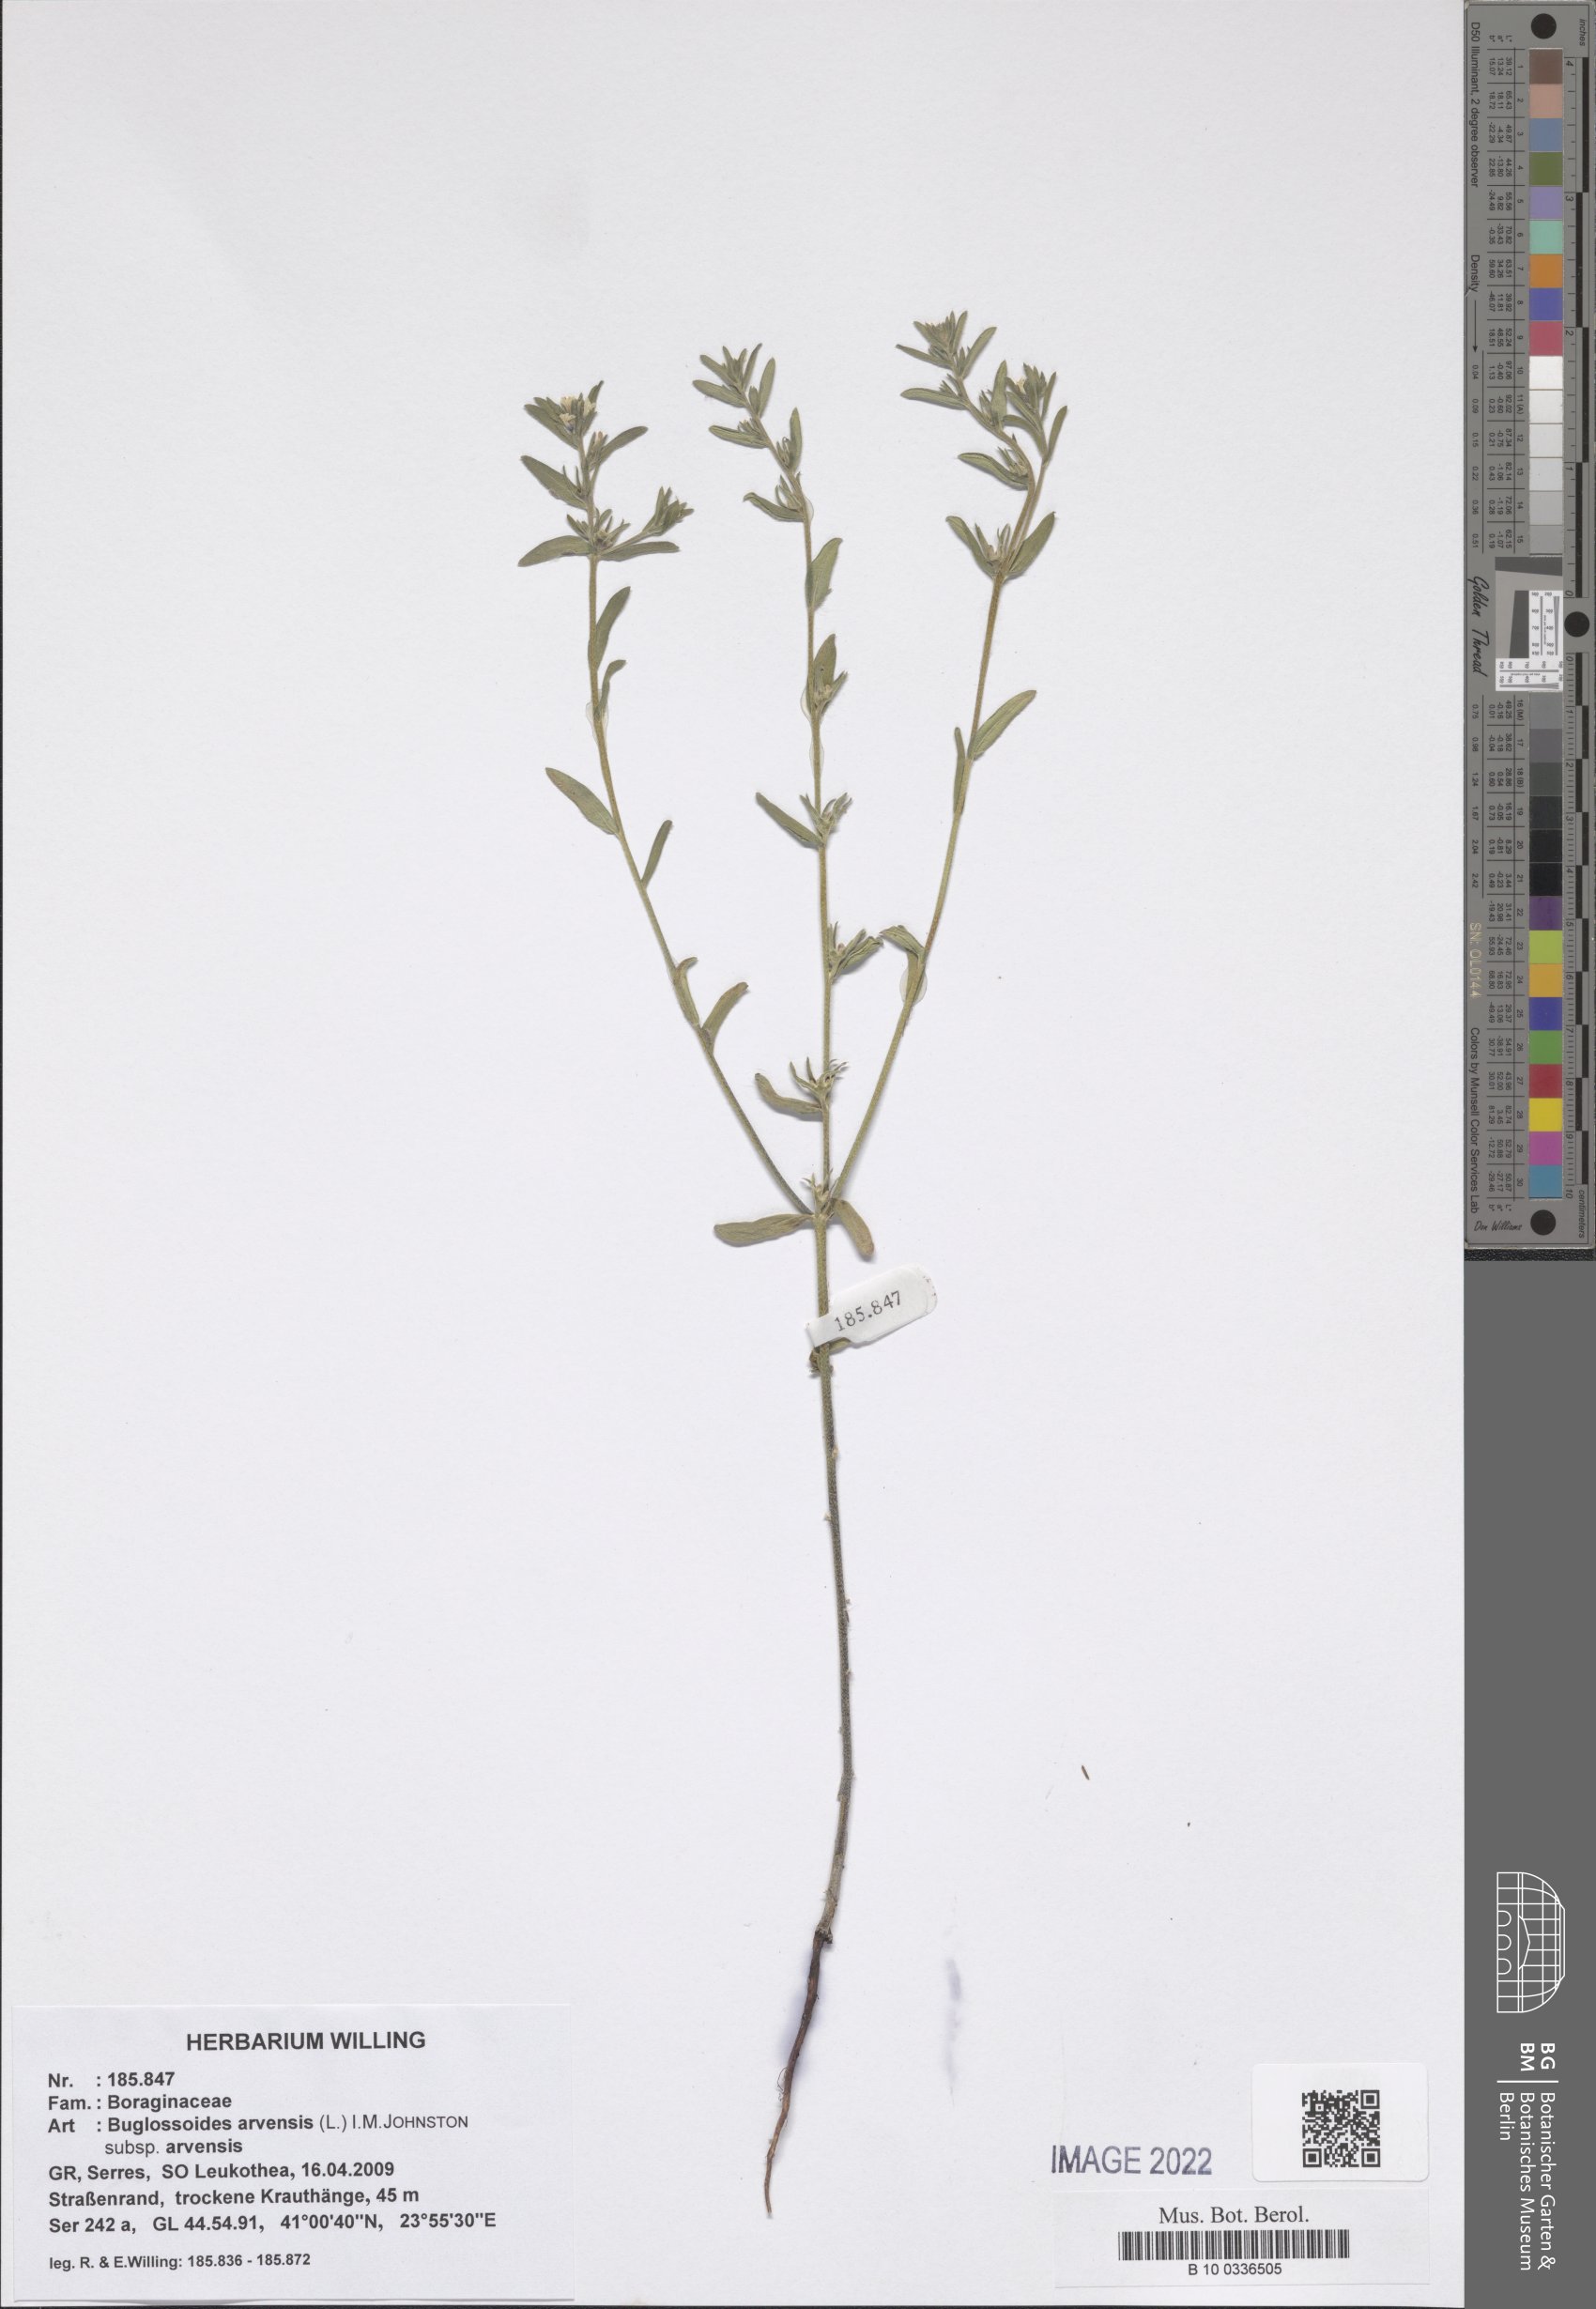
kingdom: Plantae
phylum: Tracheophyta
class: Magnoliopsida
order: Boraginales
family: Boraginaceae
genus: Buglossoides
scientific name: Buglossoides arvensis
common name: Corn gromwell
